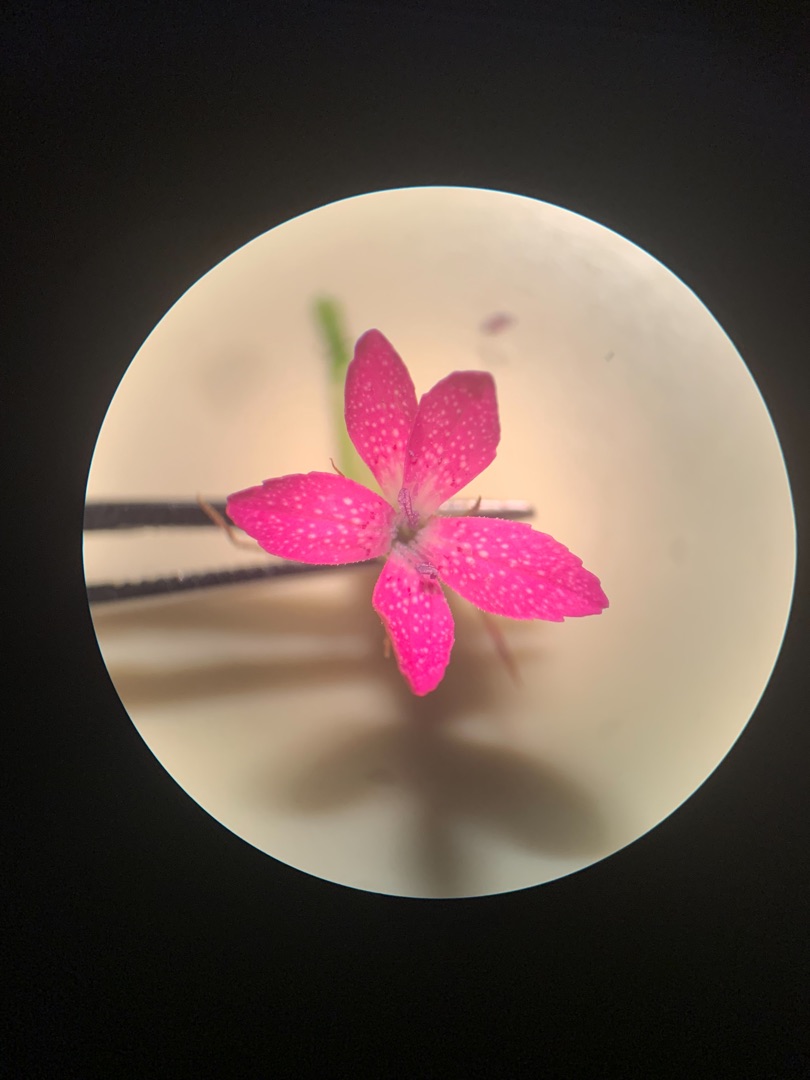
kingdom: Plantae
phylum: Tracheophyta
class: Magnoliopsida
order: Caryophyllales
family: Caryophyllaceae
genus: Dianthus
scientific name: Dianthus armeria
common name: Kost-nellike
